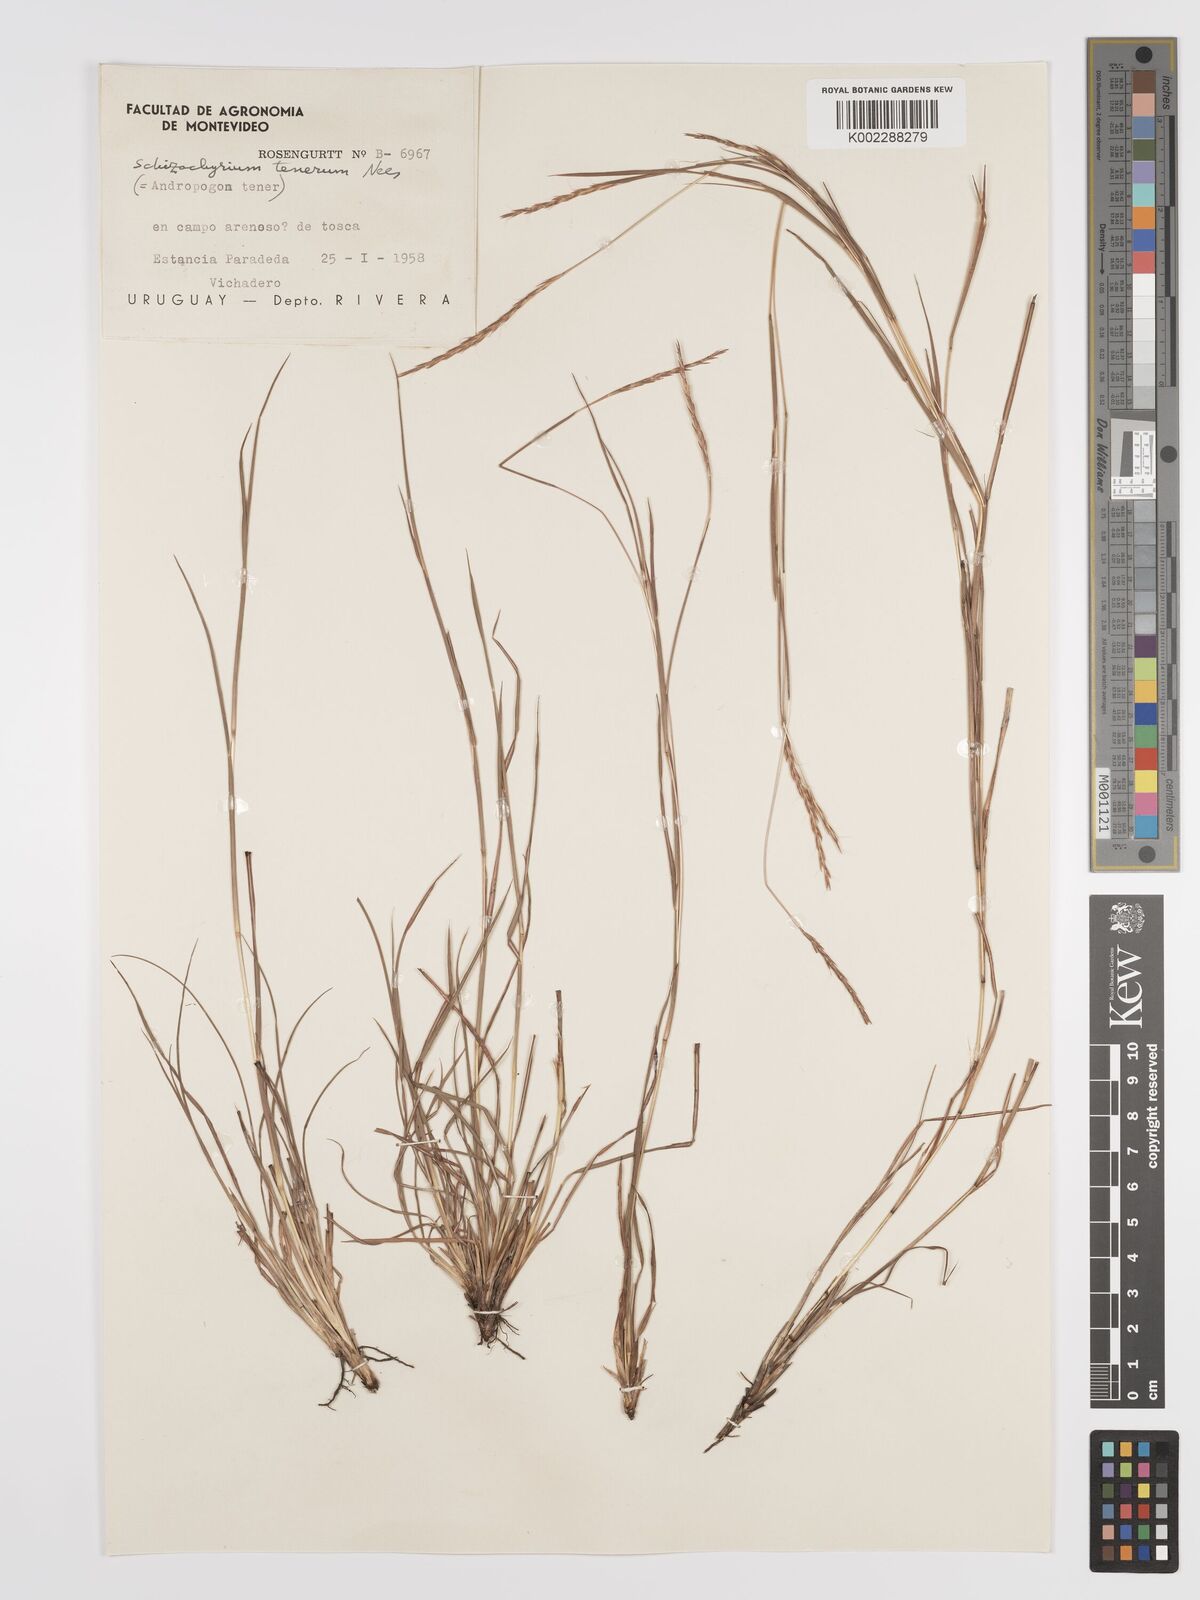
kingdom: Plantae
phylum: Tracheophyta
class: Liliopsida
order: Poales
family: Poaceae
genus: Andropogon
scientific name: Andropogon tener
